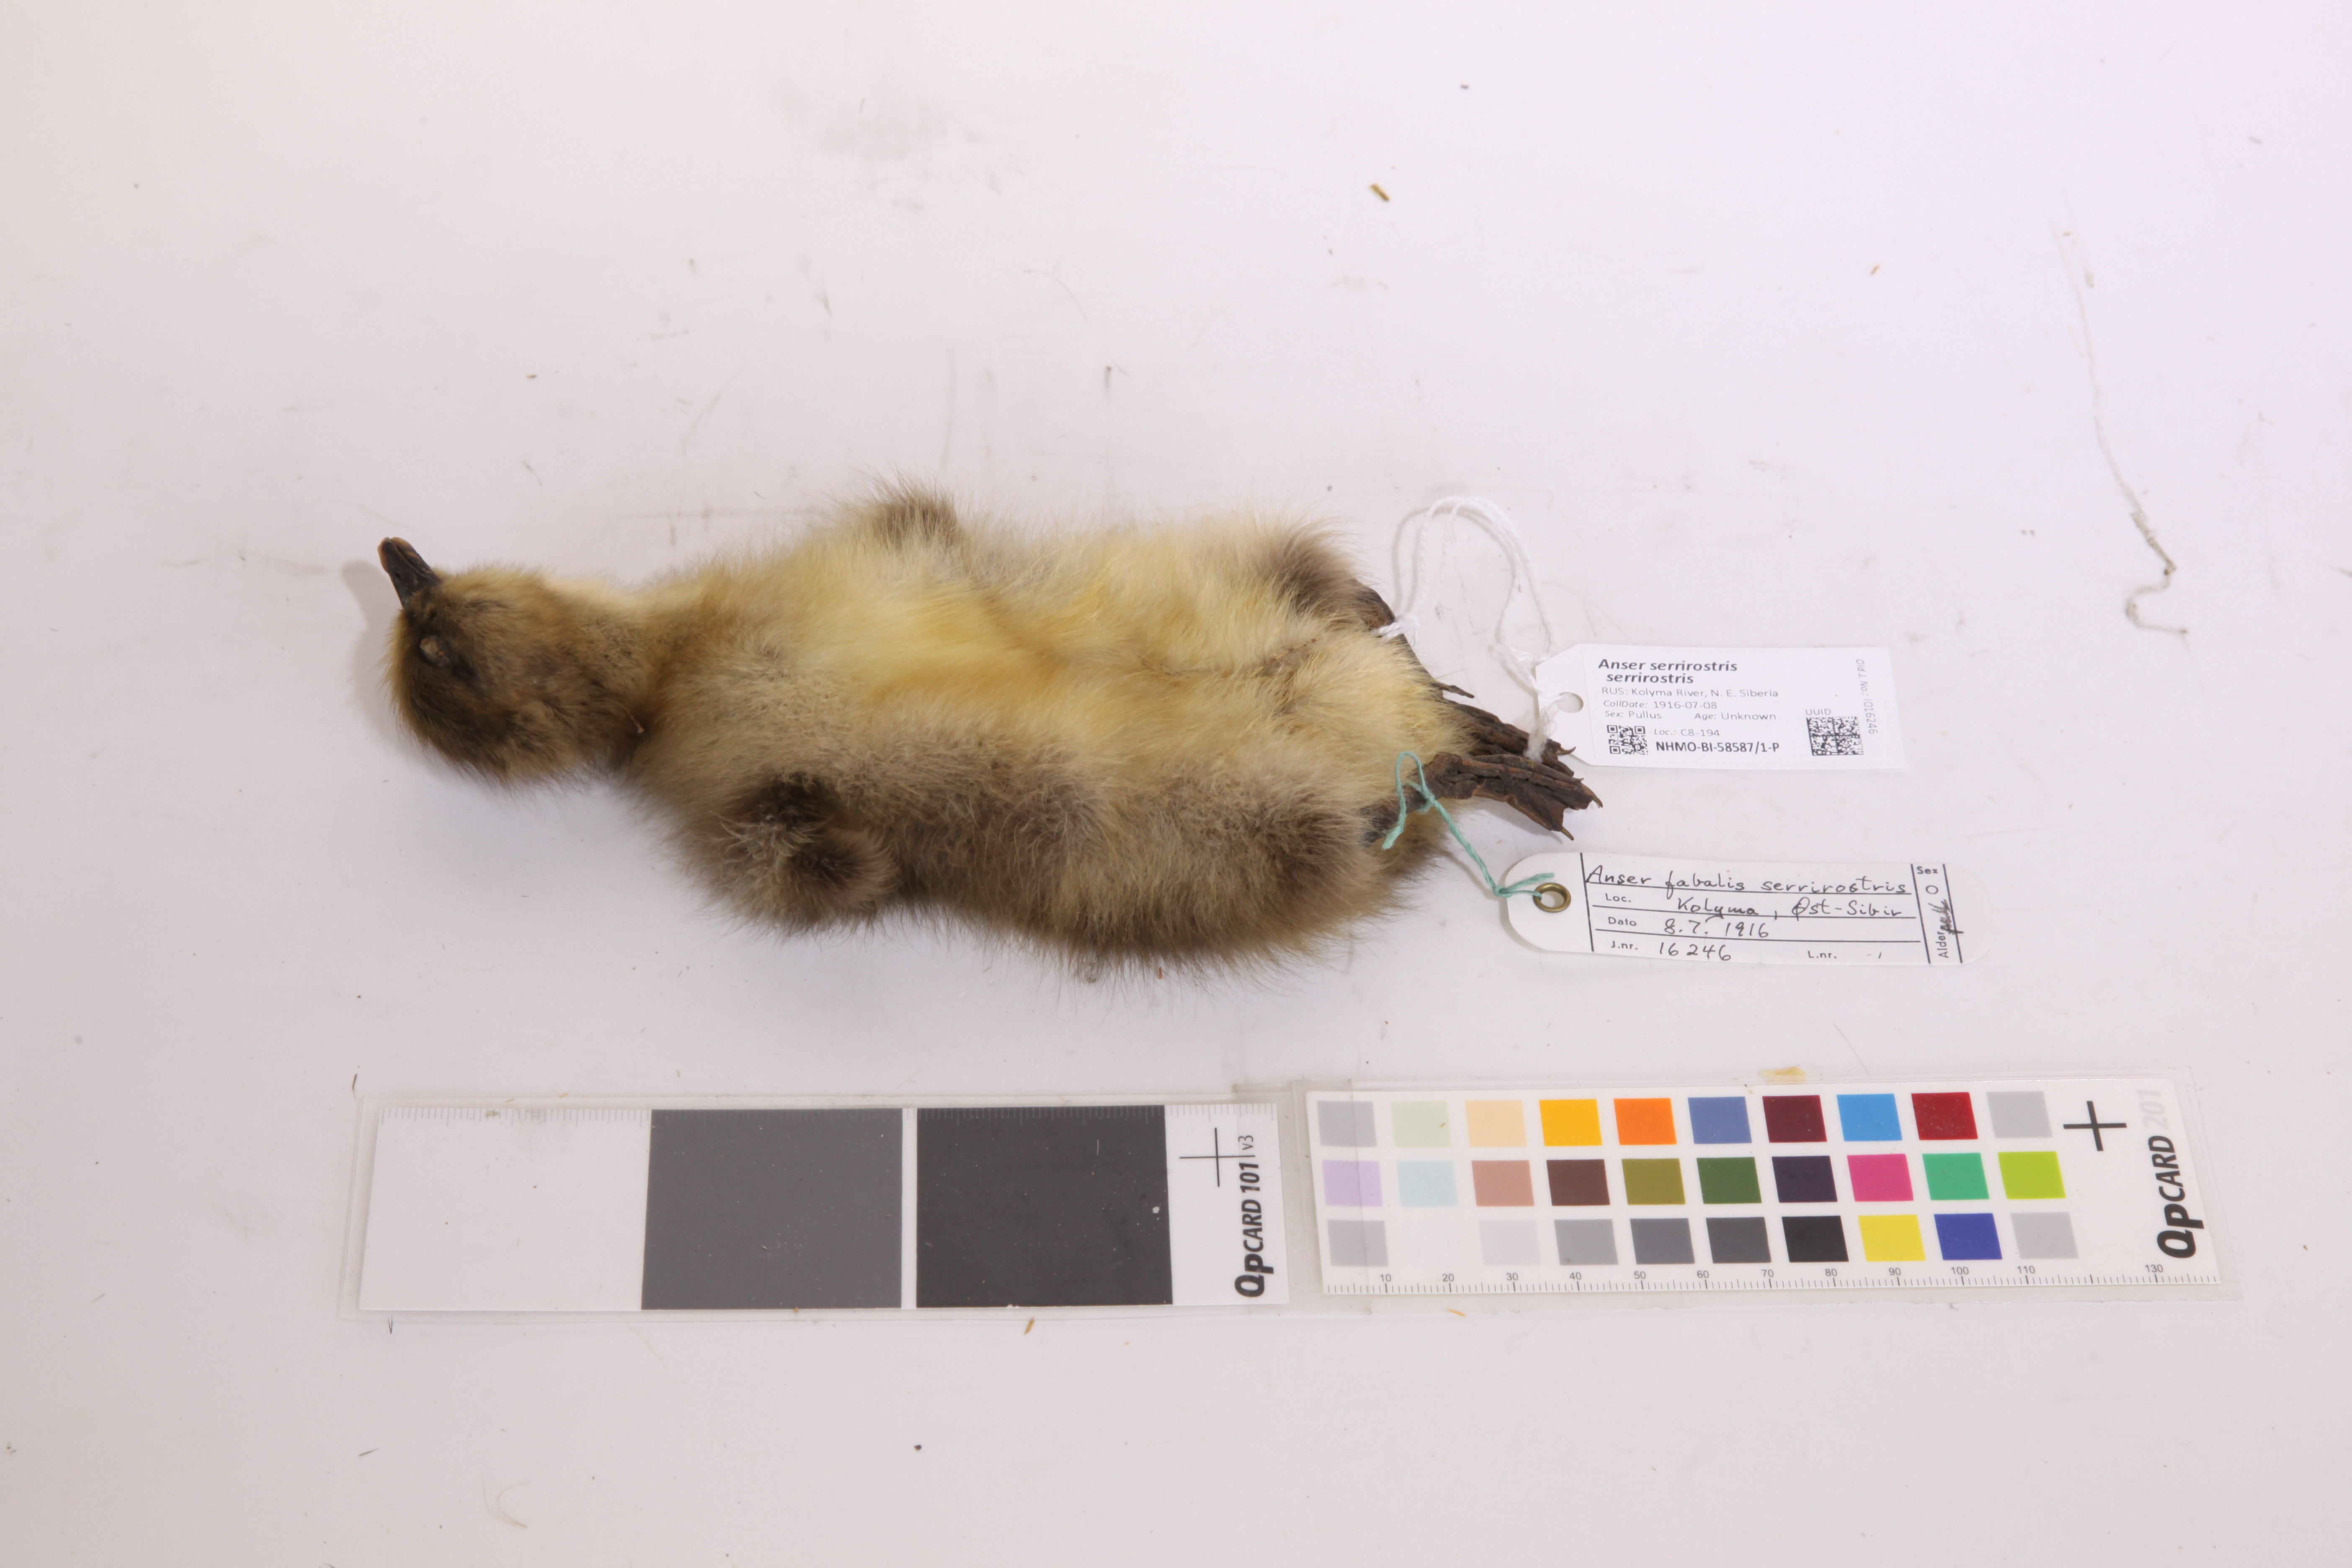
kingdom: Animalia
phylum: Chordata
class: Aves
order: Anseriformes
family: Anatidae
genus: Anser
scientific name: Anser serrirostris
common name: Tundra bean goose
